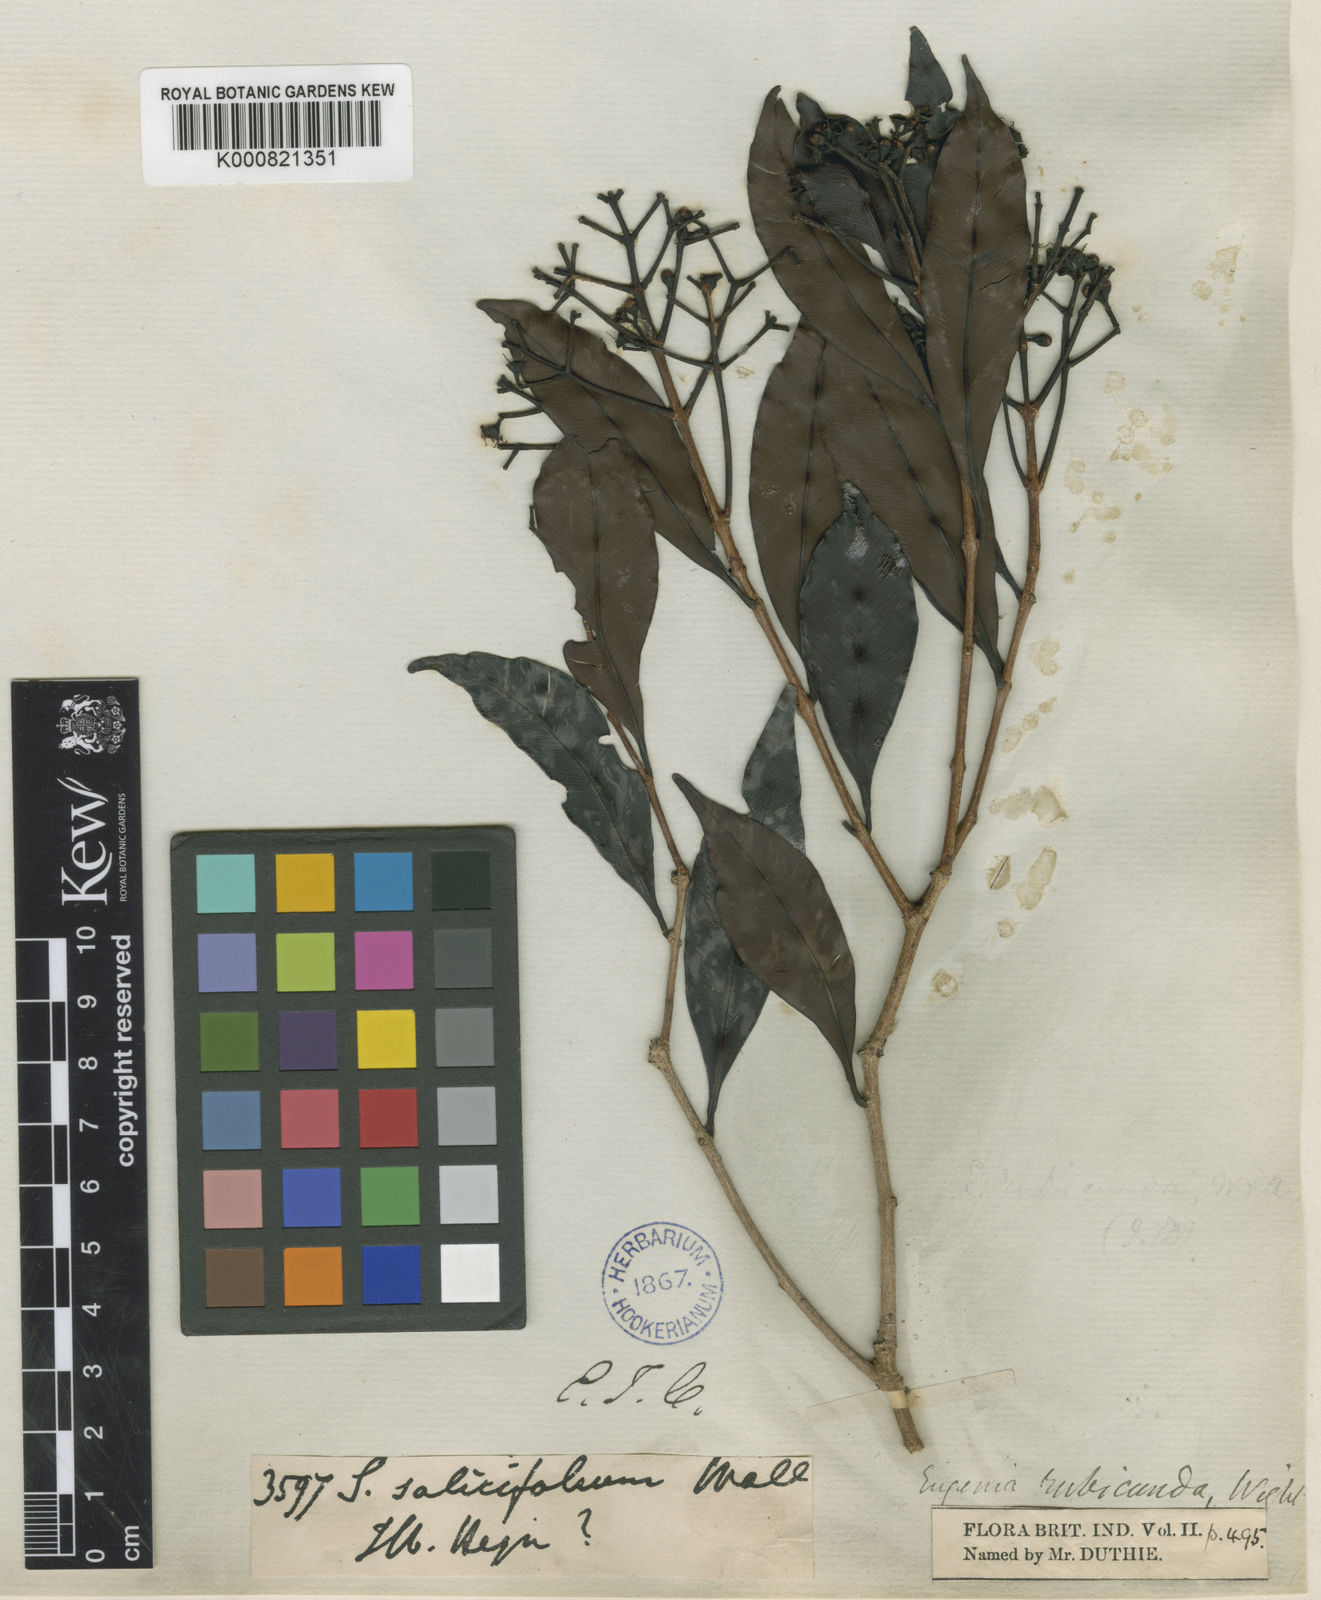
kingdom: Plantae
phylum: Tracheophyta
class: Magnoliopsida
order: Myrtales
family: Myrtaceae
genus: Syzygium
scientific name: Syzygium rubicundum
